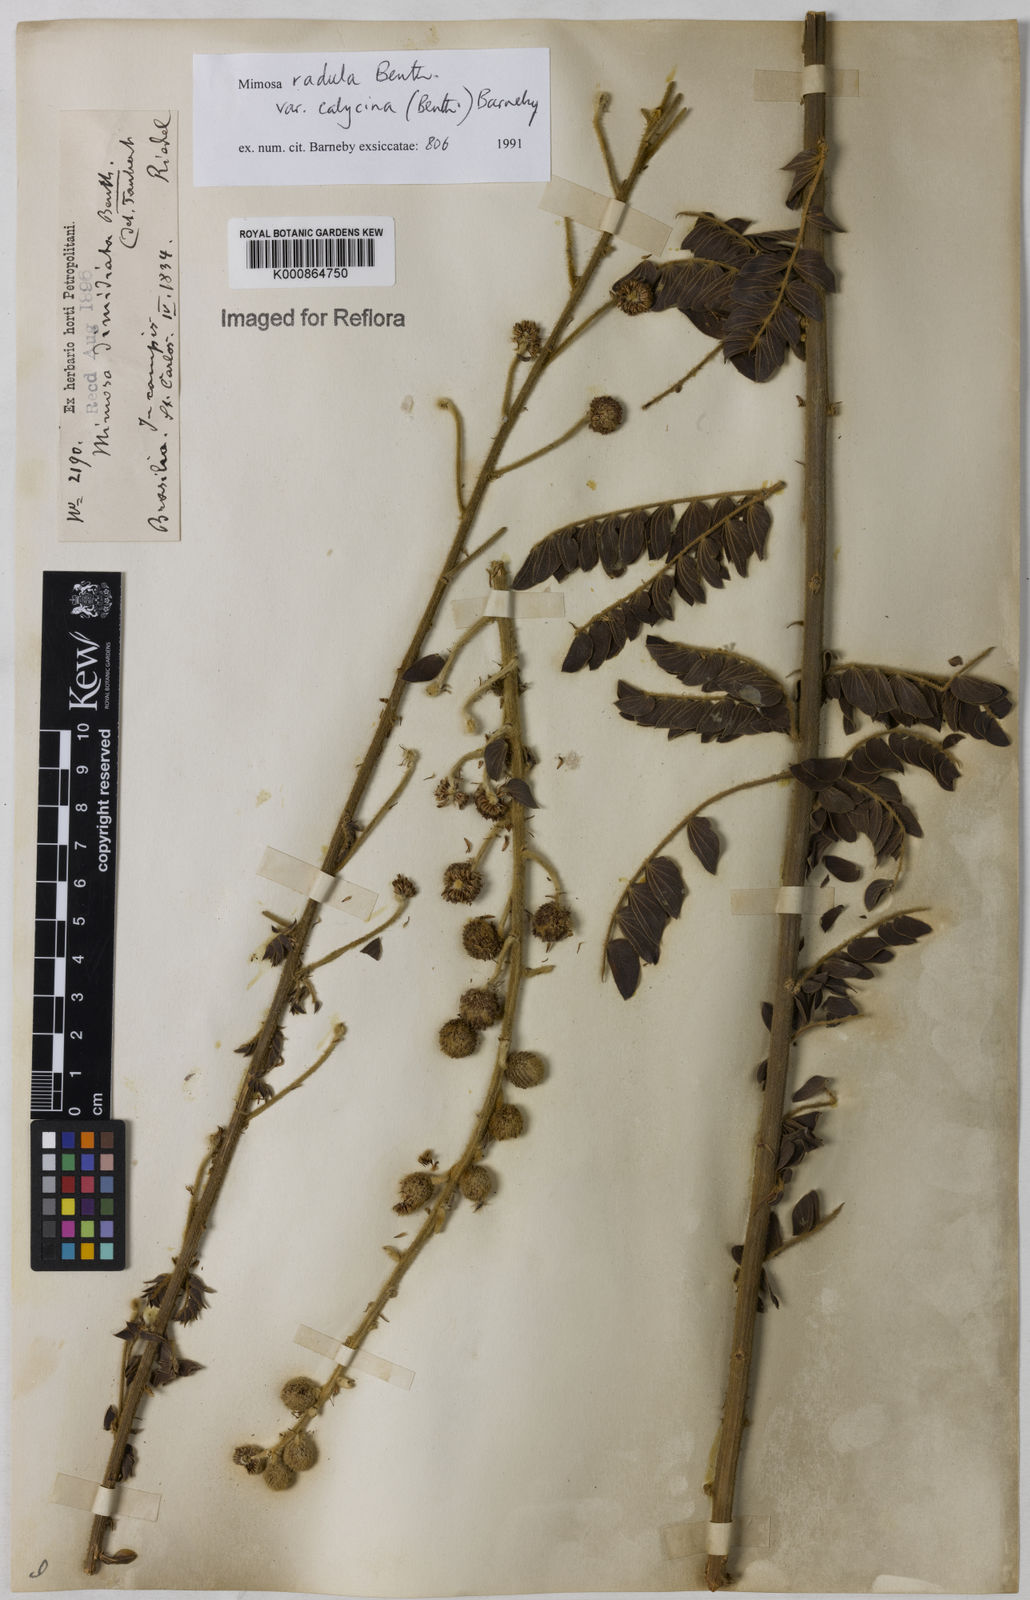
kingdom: Plantae
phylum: Tracheophyta
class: Magnoliopsida
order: Fabales
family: Fabaceae
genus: Mimosa
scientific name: Mimosa radula
